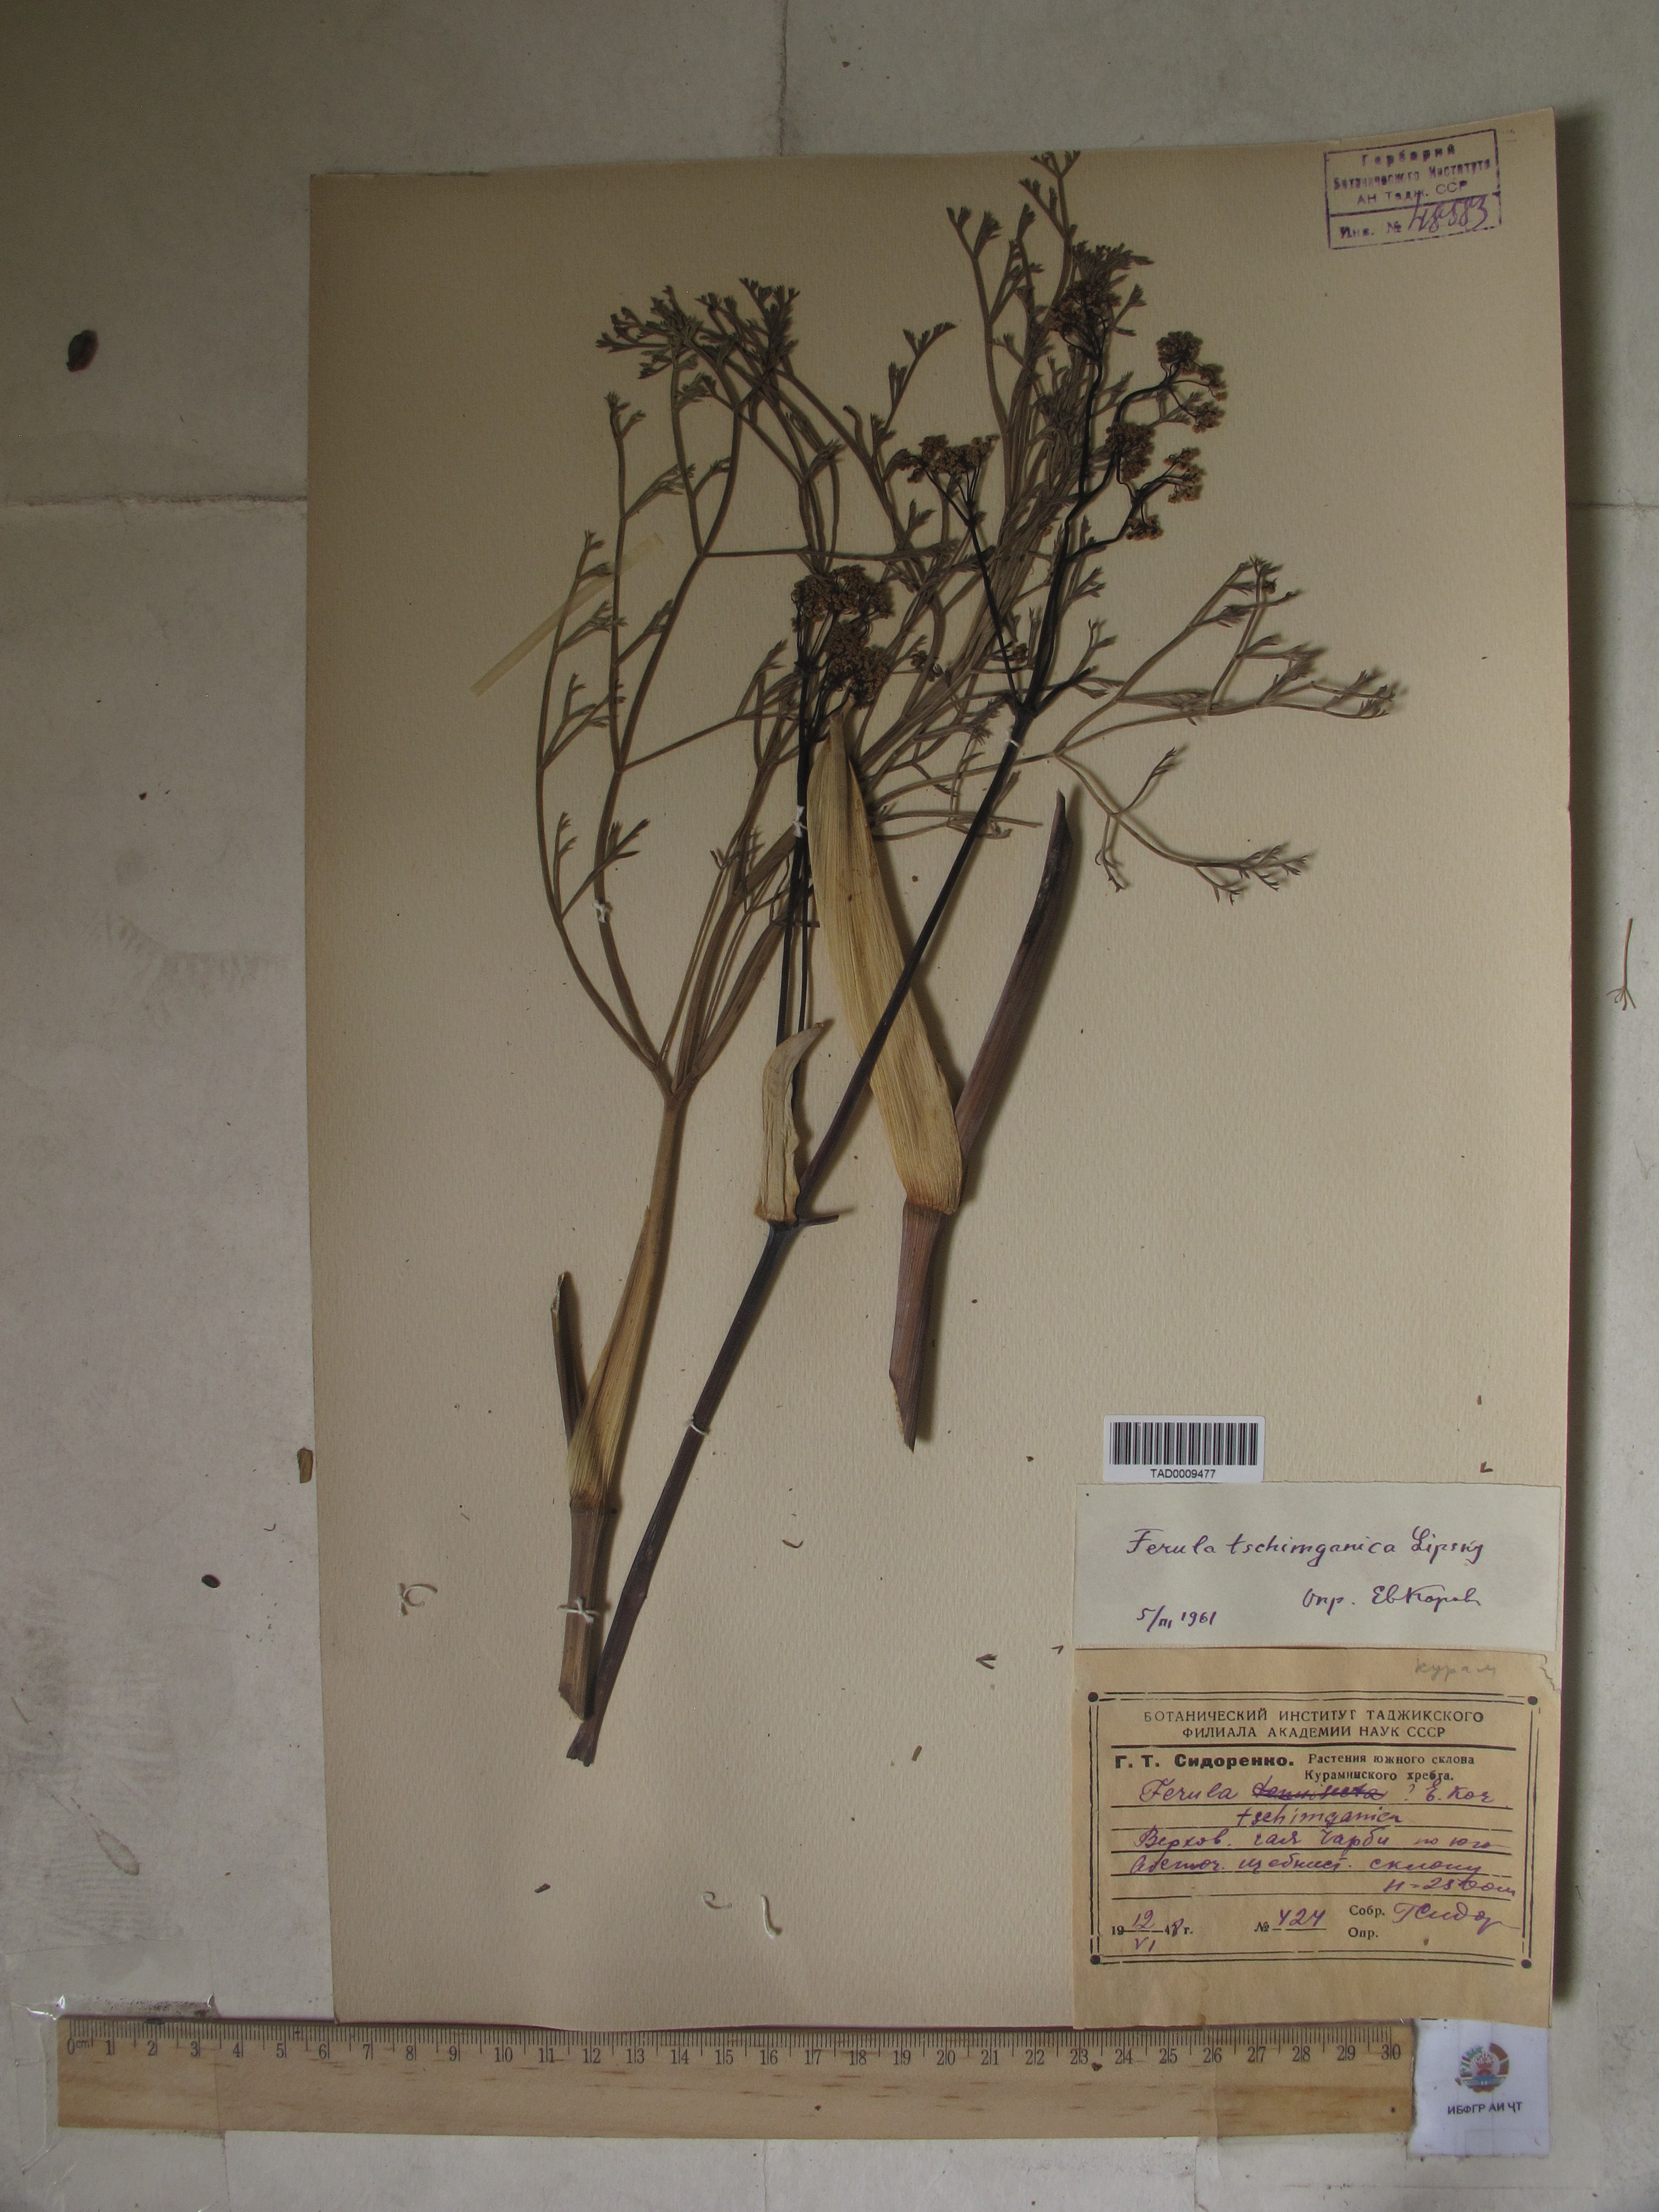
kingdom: Plantae
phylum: Tracheophyta
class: Magnoliopsida
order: Apiales
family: Apiaceae
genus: Ferula
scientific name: Ferula tschimganica
